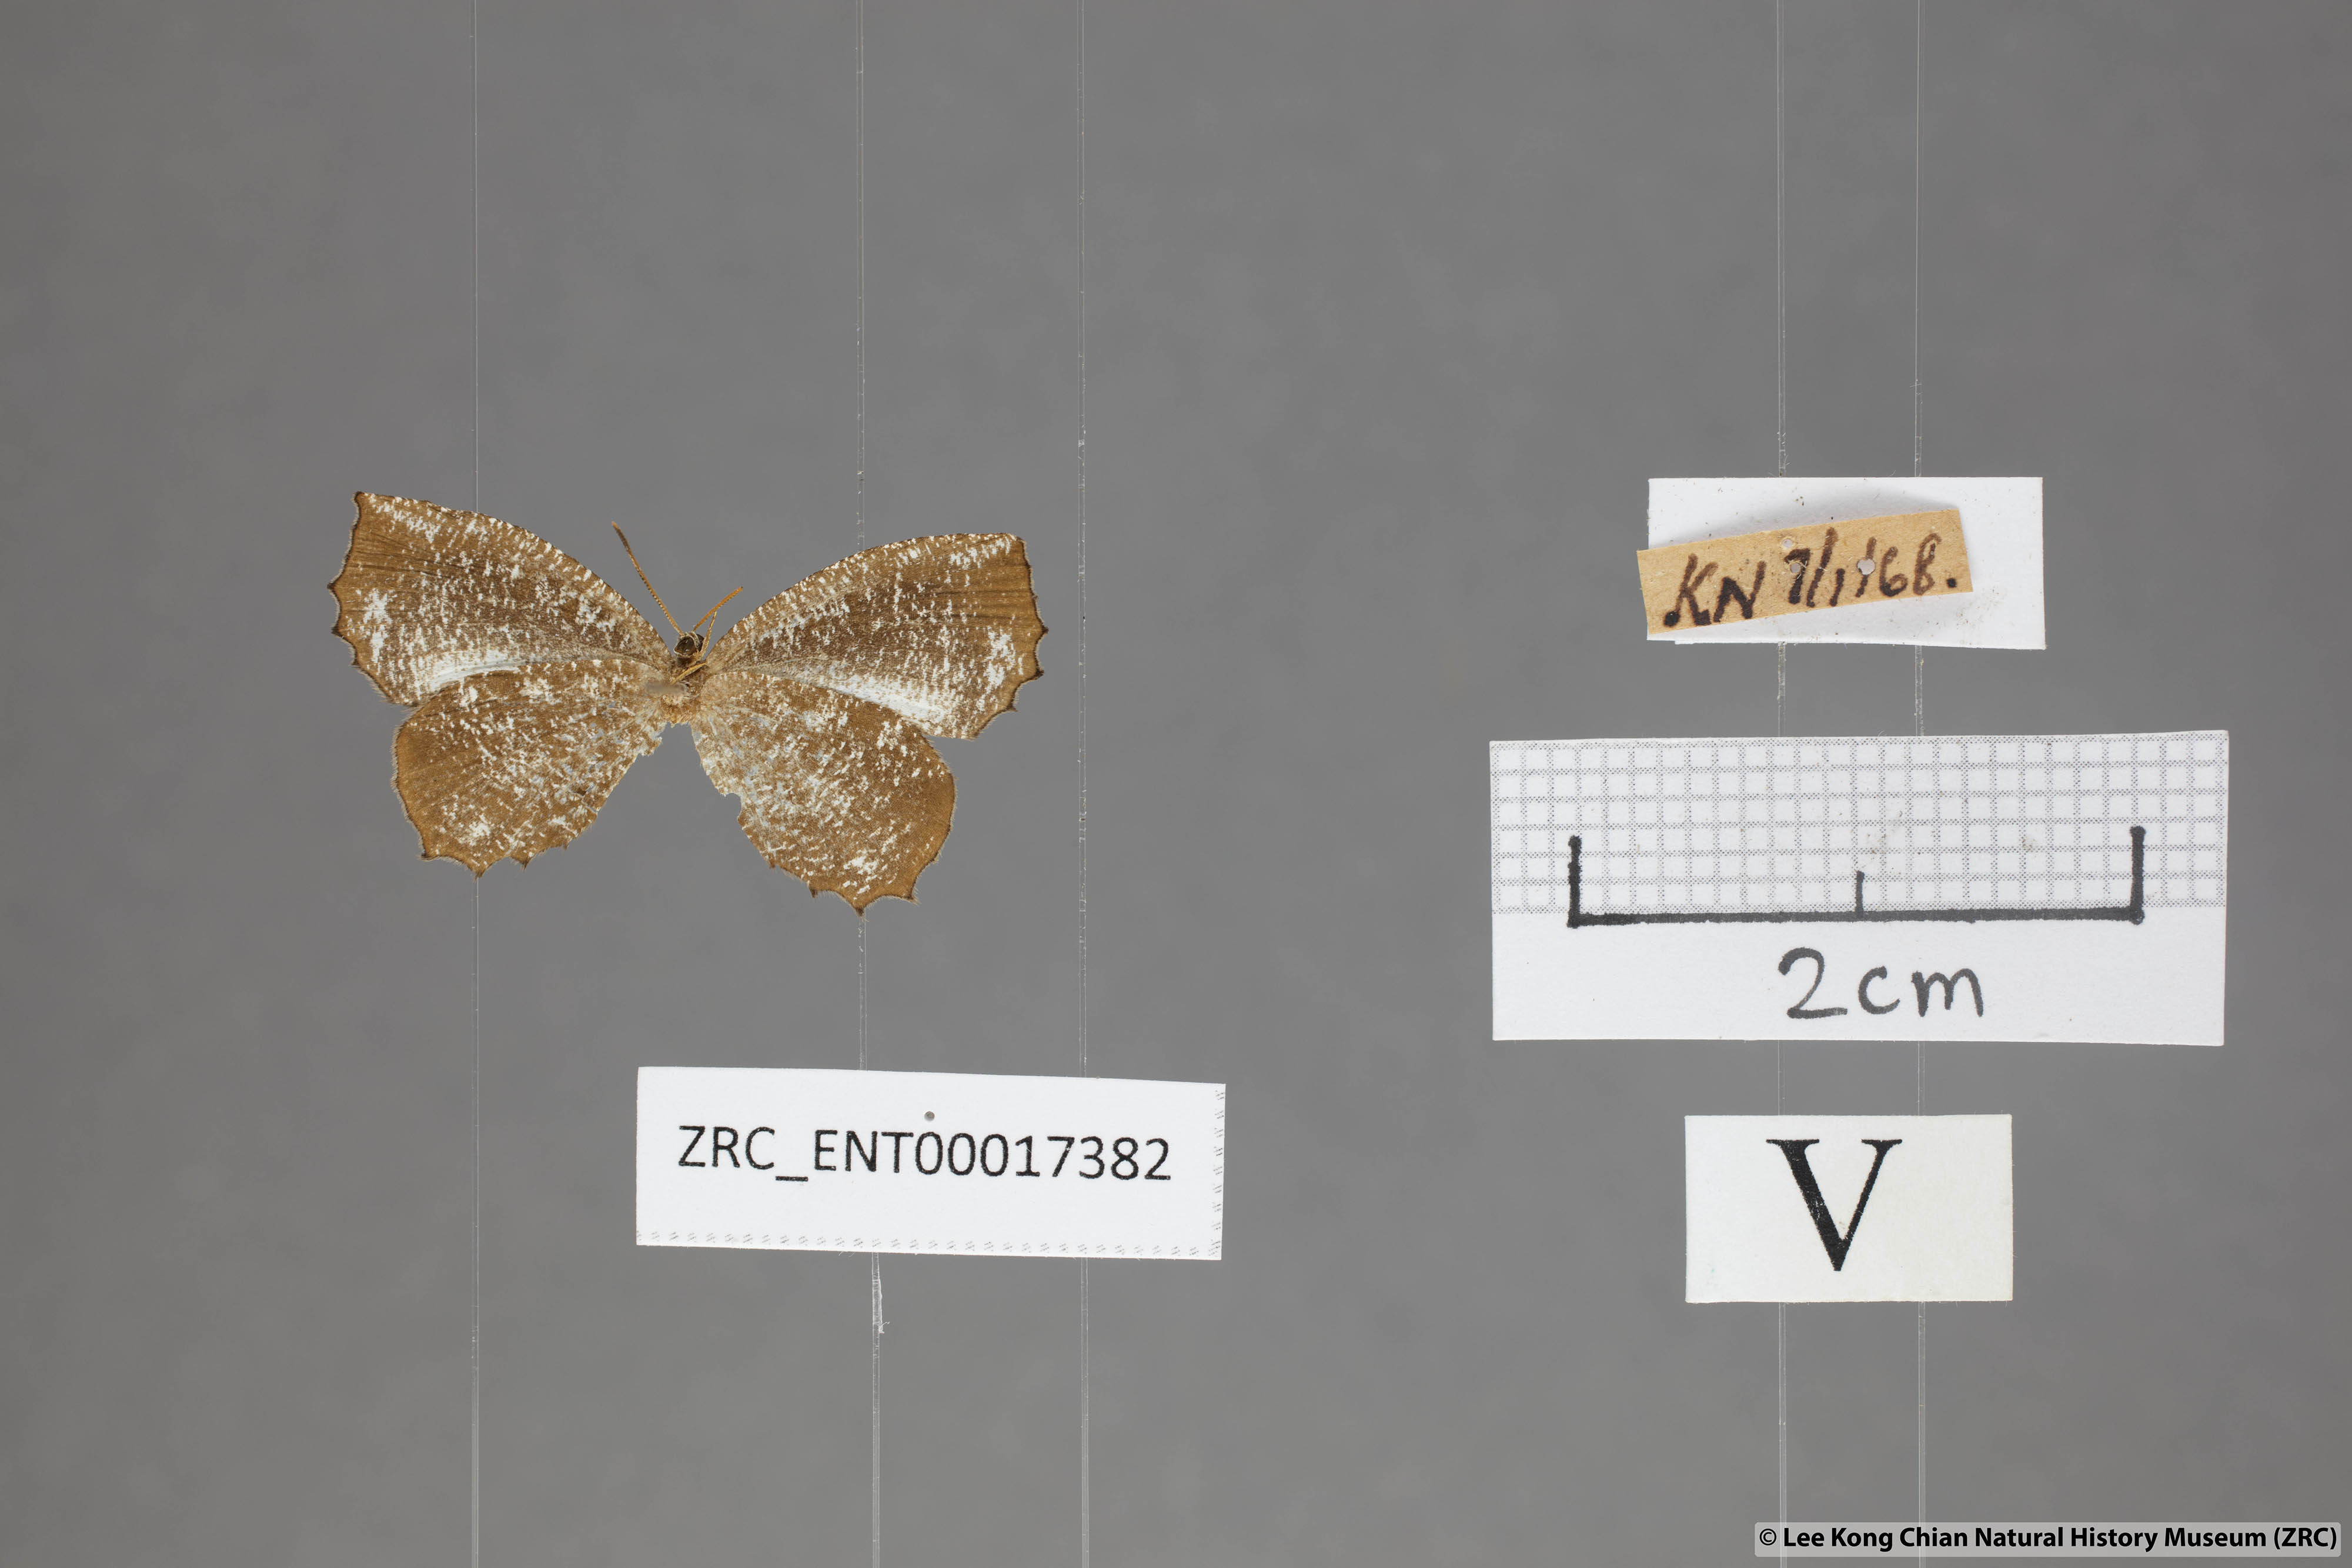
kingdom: Animalia
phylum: Arthropoda
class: Insecta
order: Lepidoptera
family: Lycaenidae
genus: Logania
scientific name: Logania malayica
